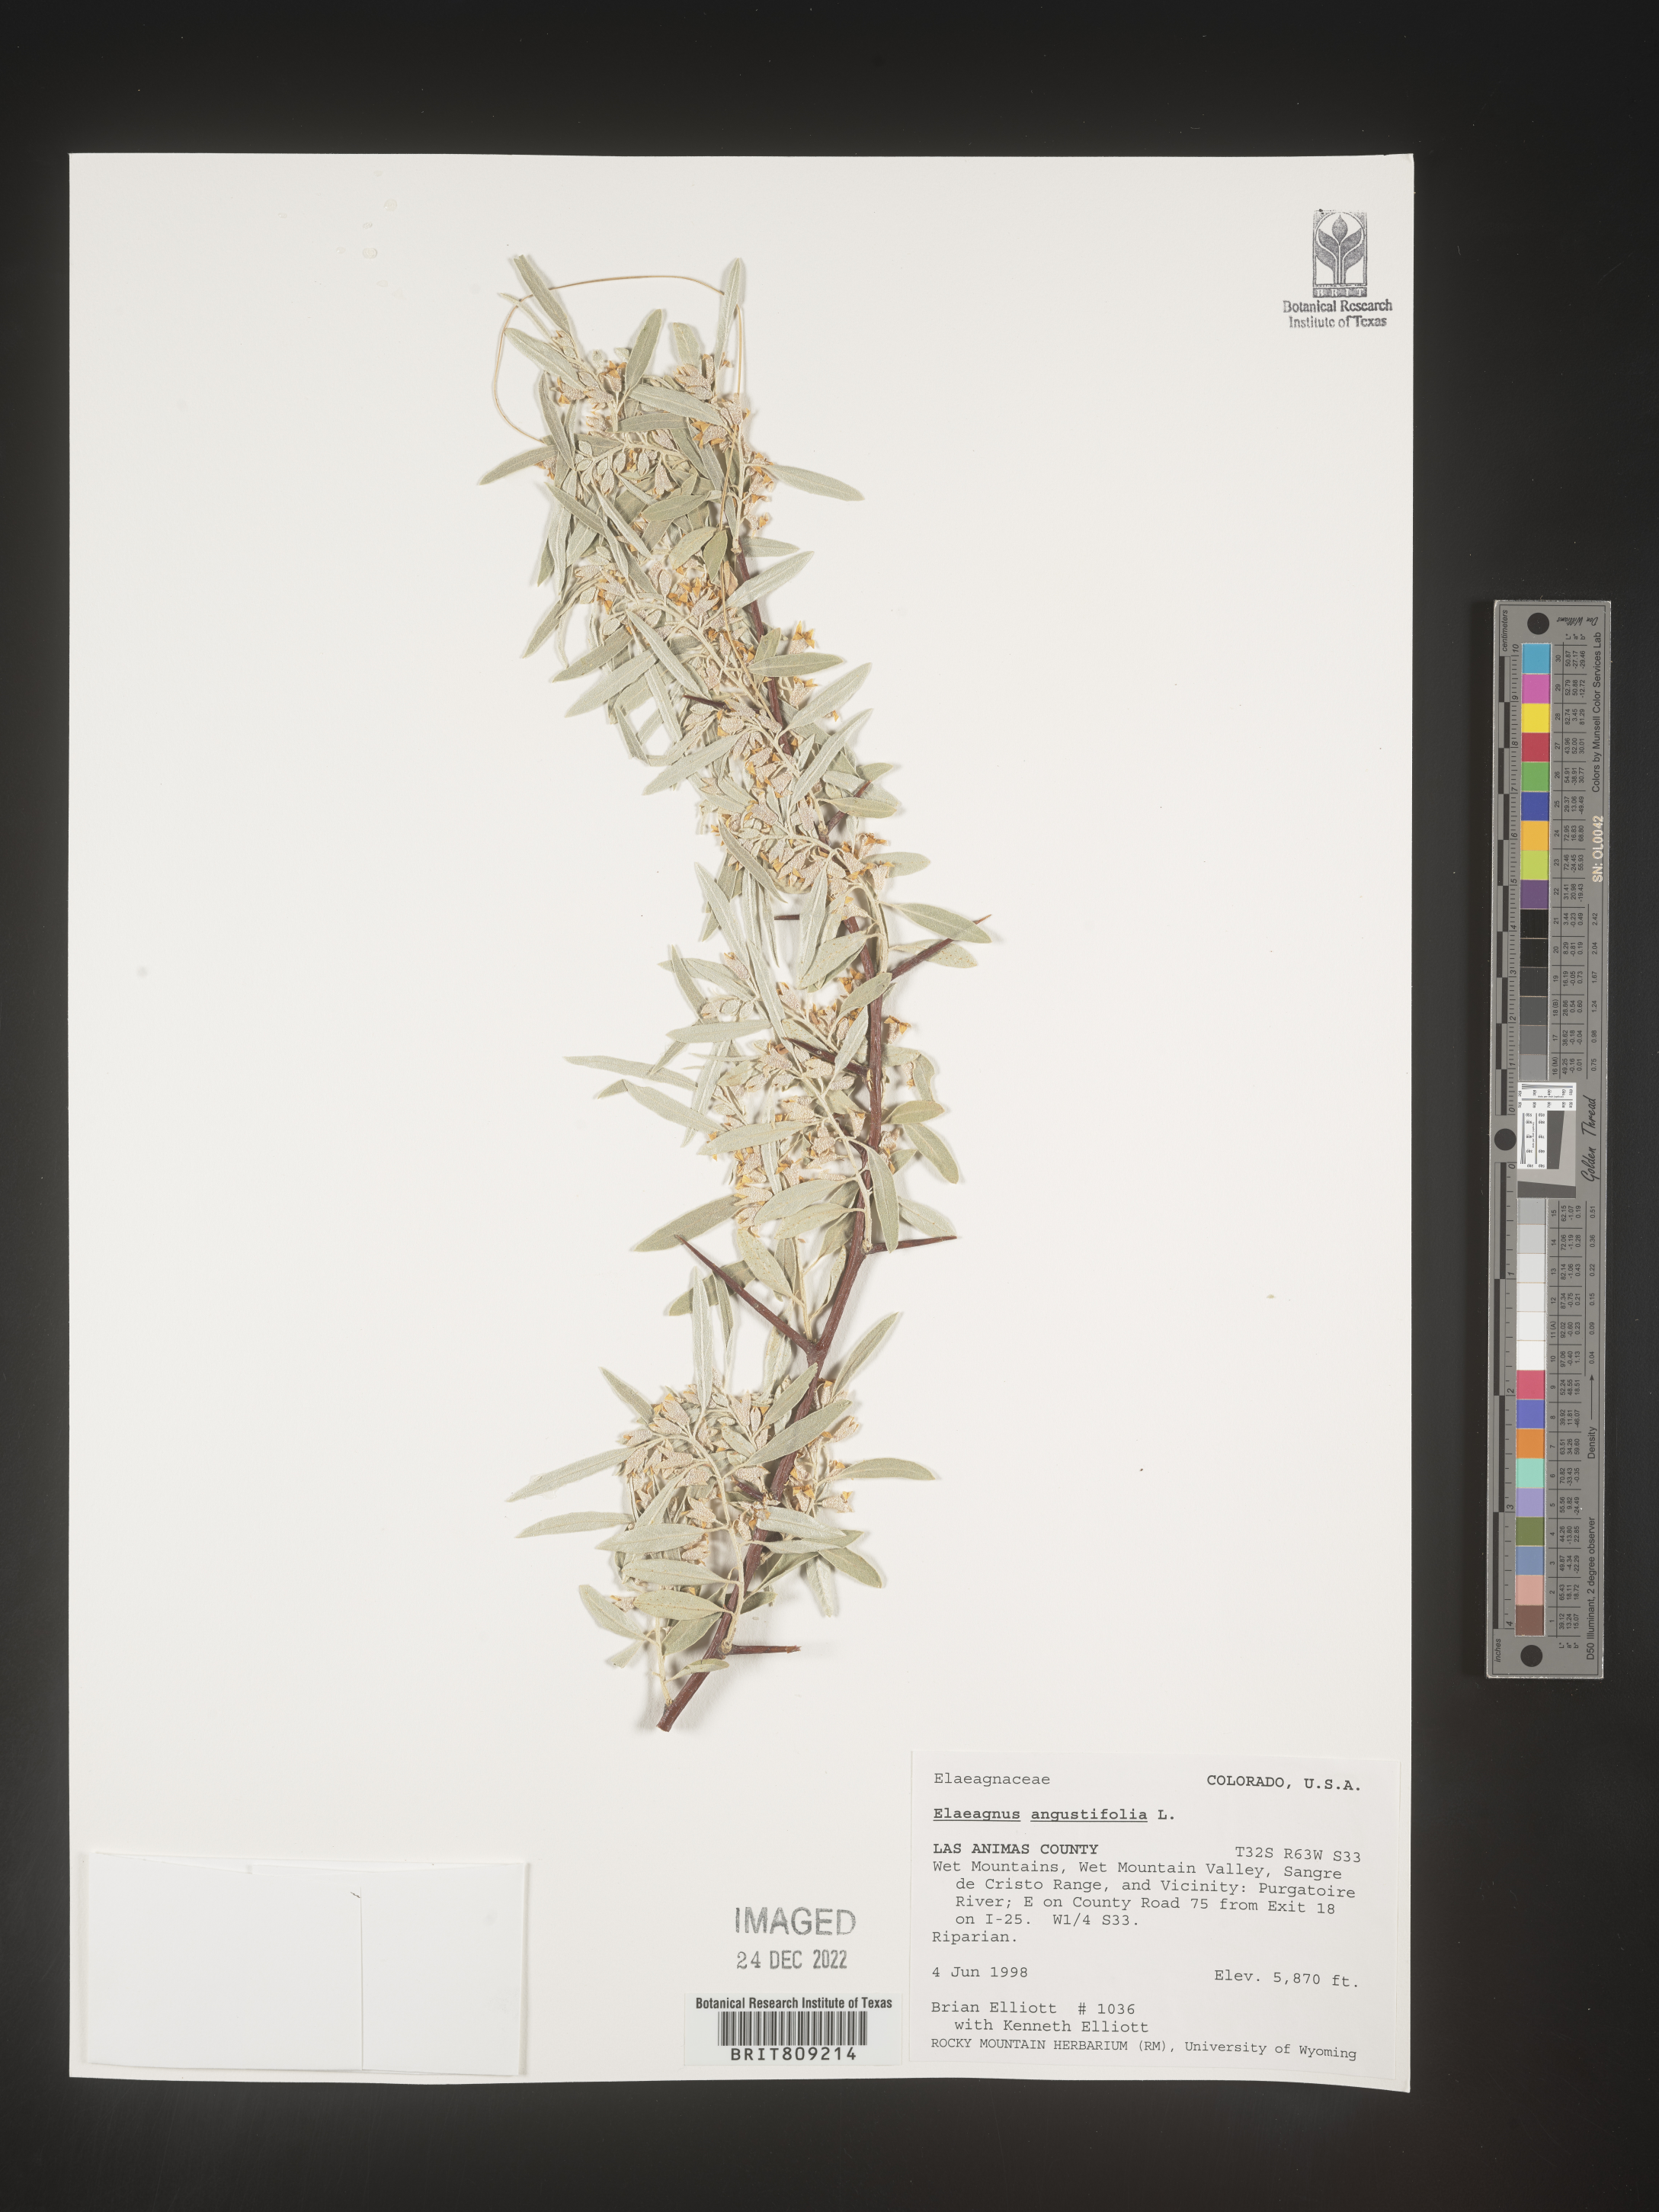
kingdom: Plantae
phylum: Tracheophyta
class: Magnoliopsida
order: Rosales
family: Elaeagnaceae
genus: Elaeagnus
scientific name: Elaeagnus angustifolia
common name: Russian olive
